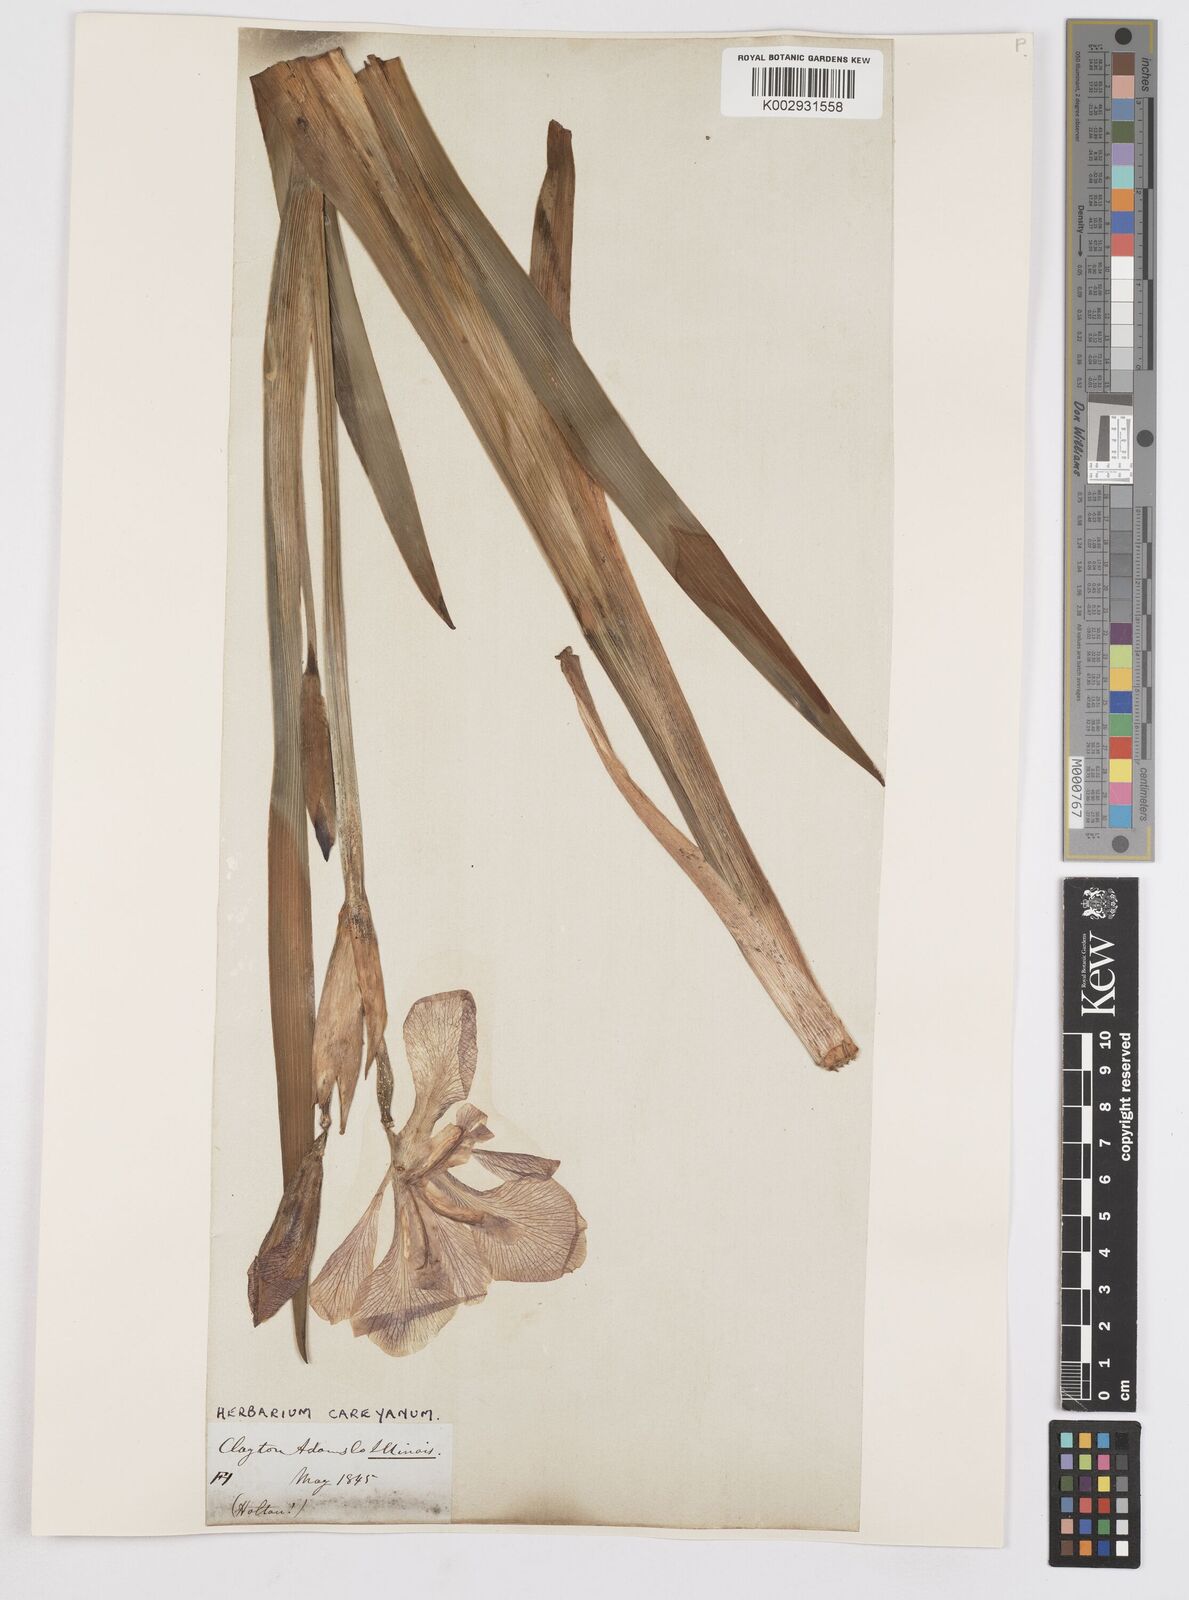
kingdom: Plantae
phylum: Tracheophyta
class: Liliopsida
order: Asparagales
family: Iridaceae
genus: Iris
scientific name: Iris virginica
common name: Southern blue flag
